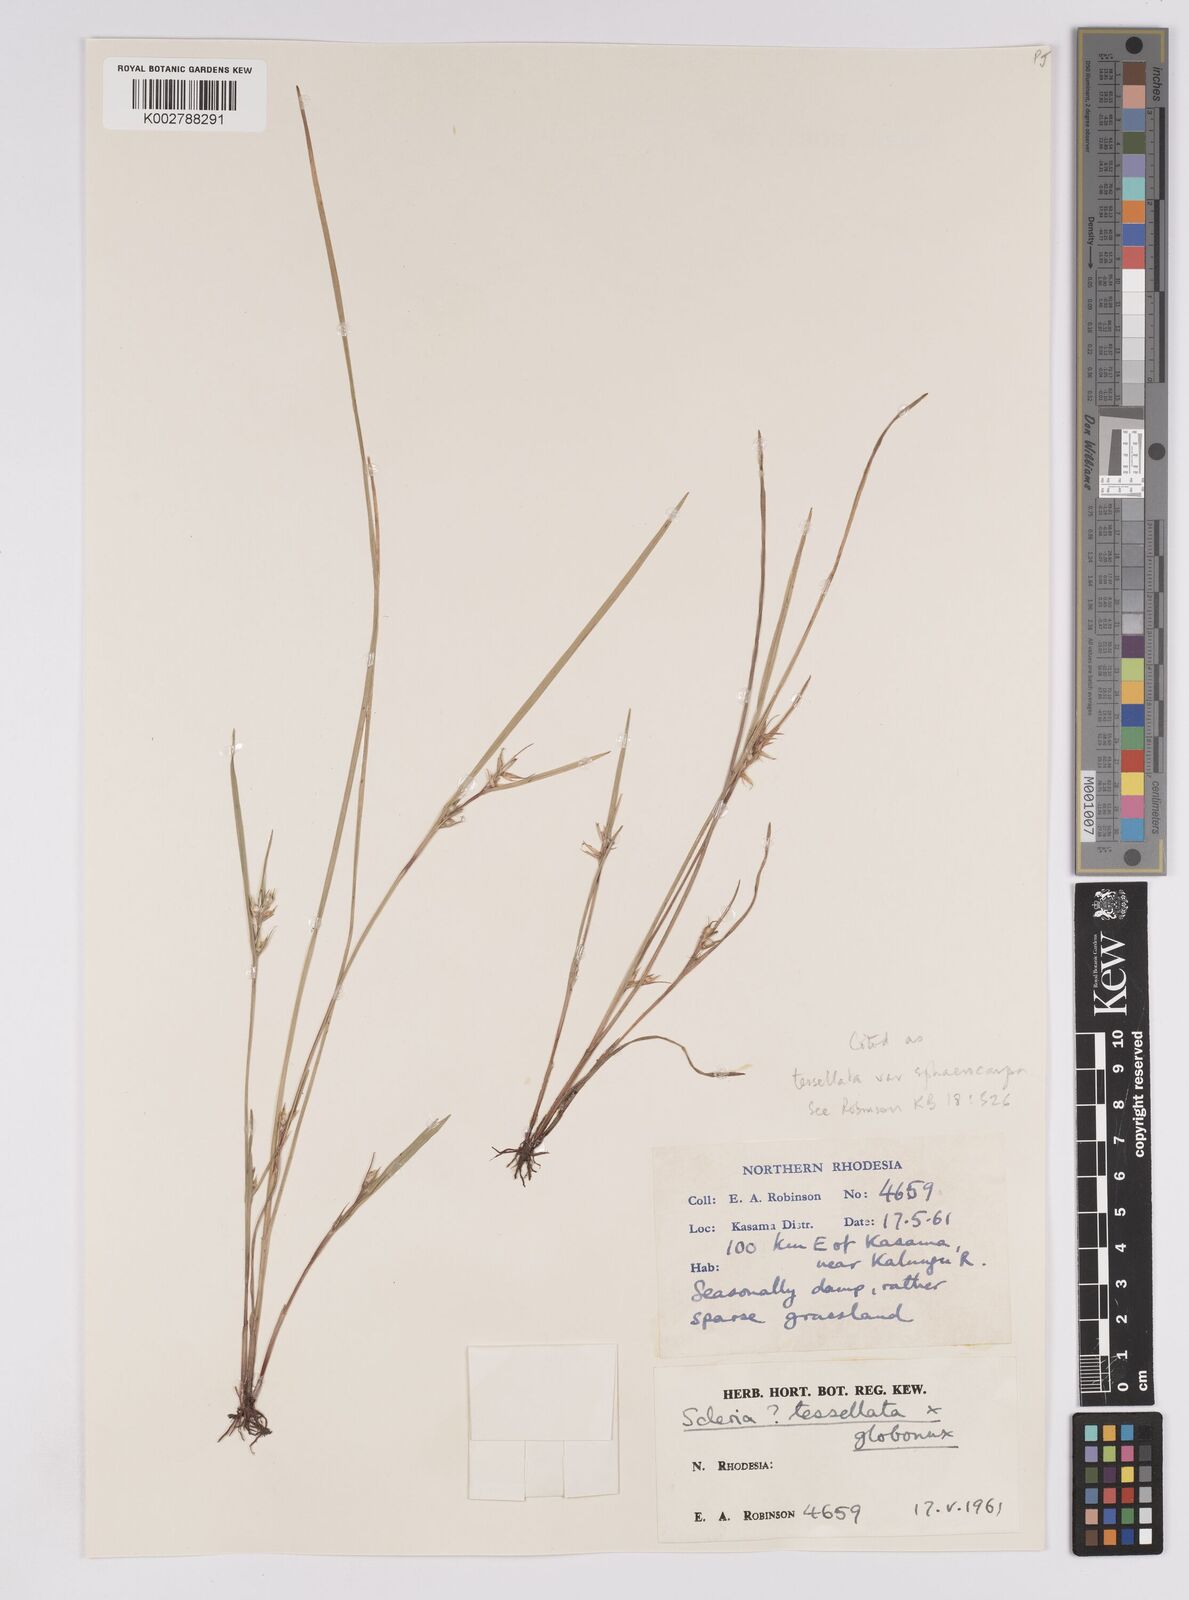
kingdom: Plantae
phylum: Tracheophyta
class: Liliopsida
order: Poales
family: Cyperaceae
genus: Scleria
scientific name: Scleria
